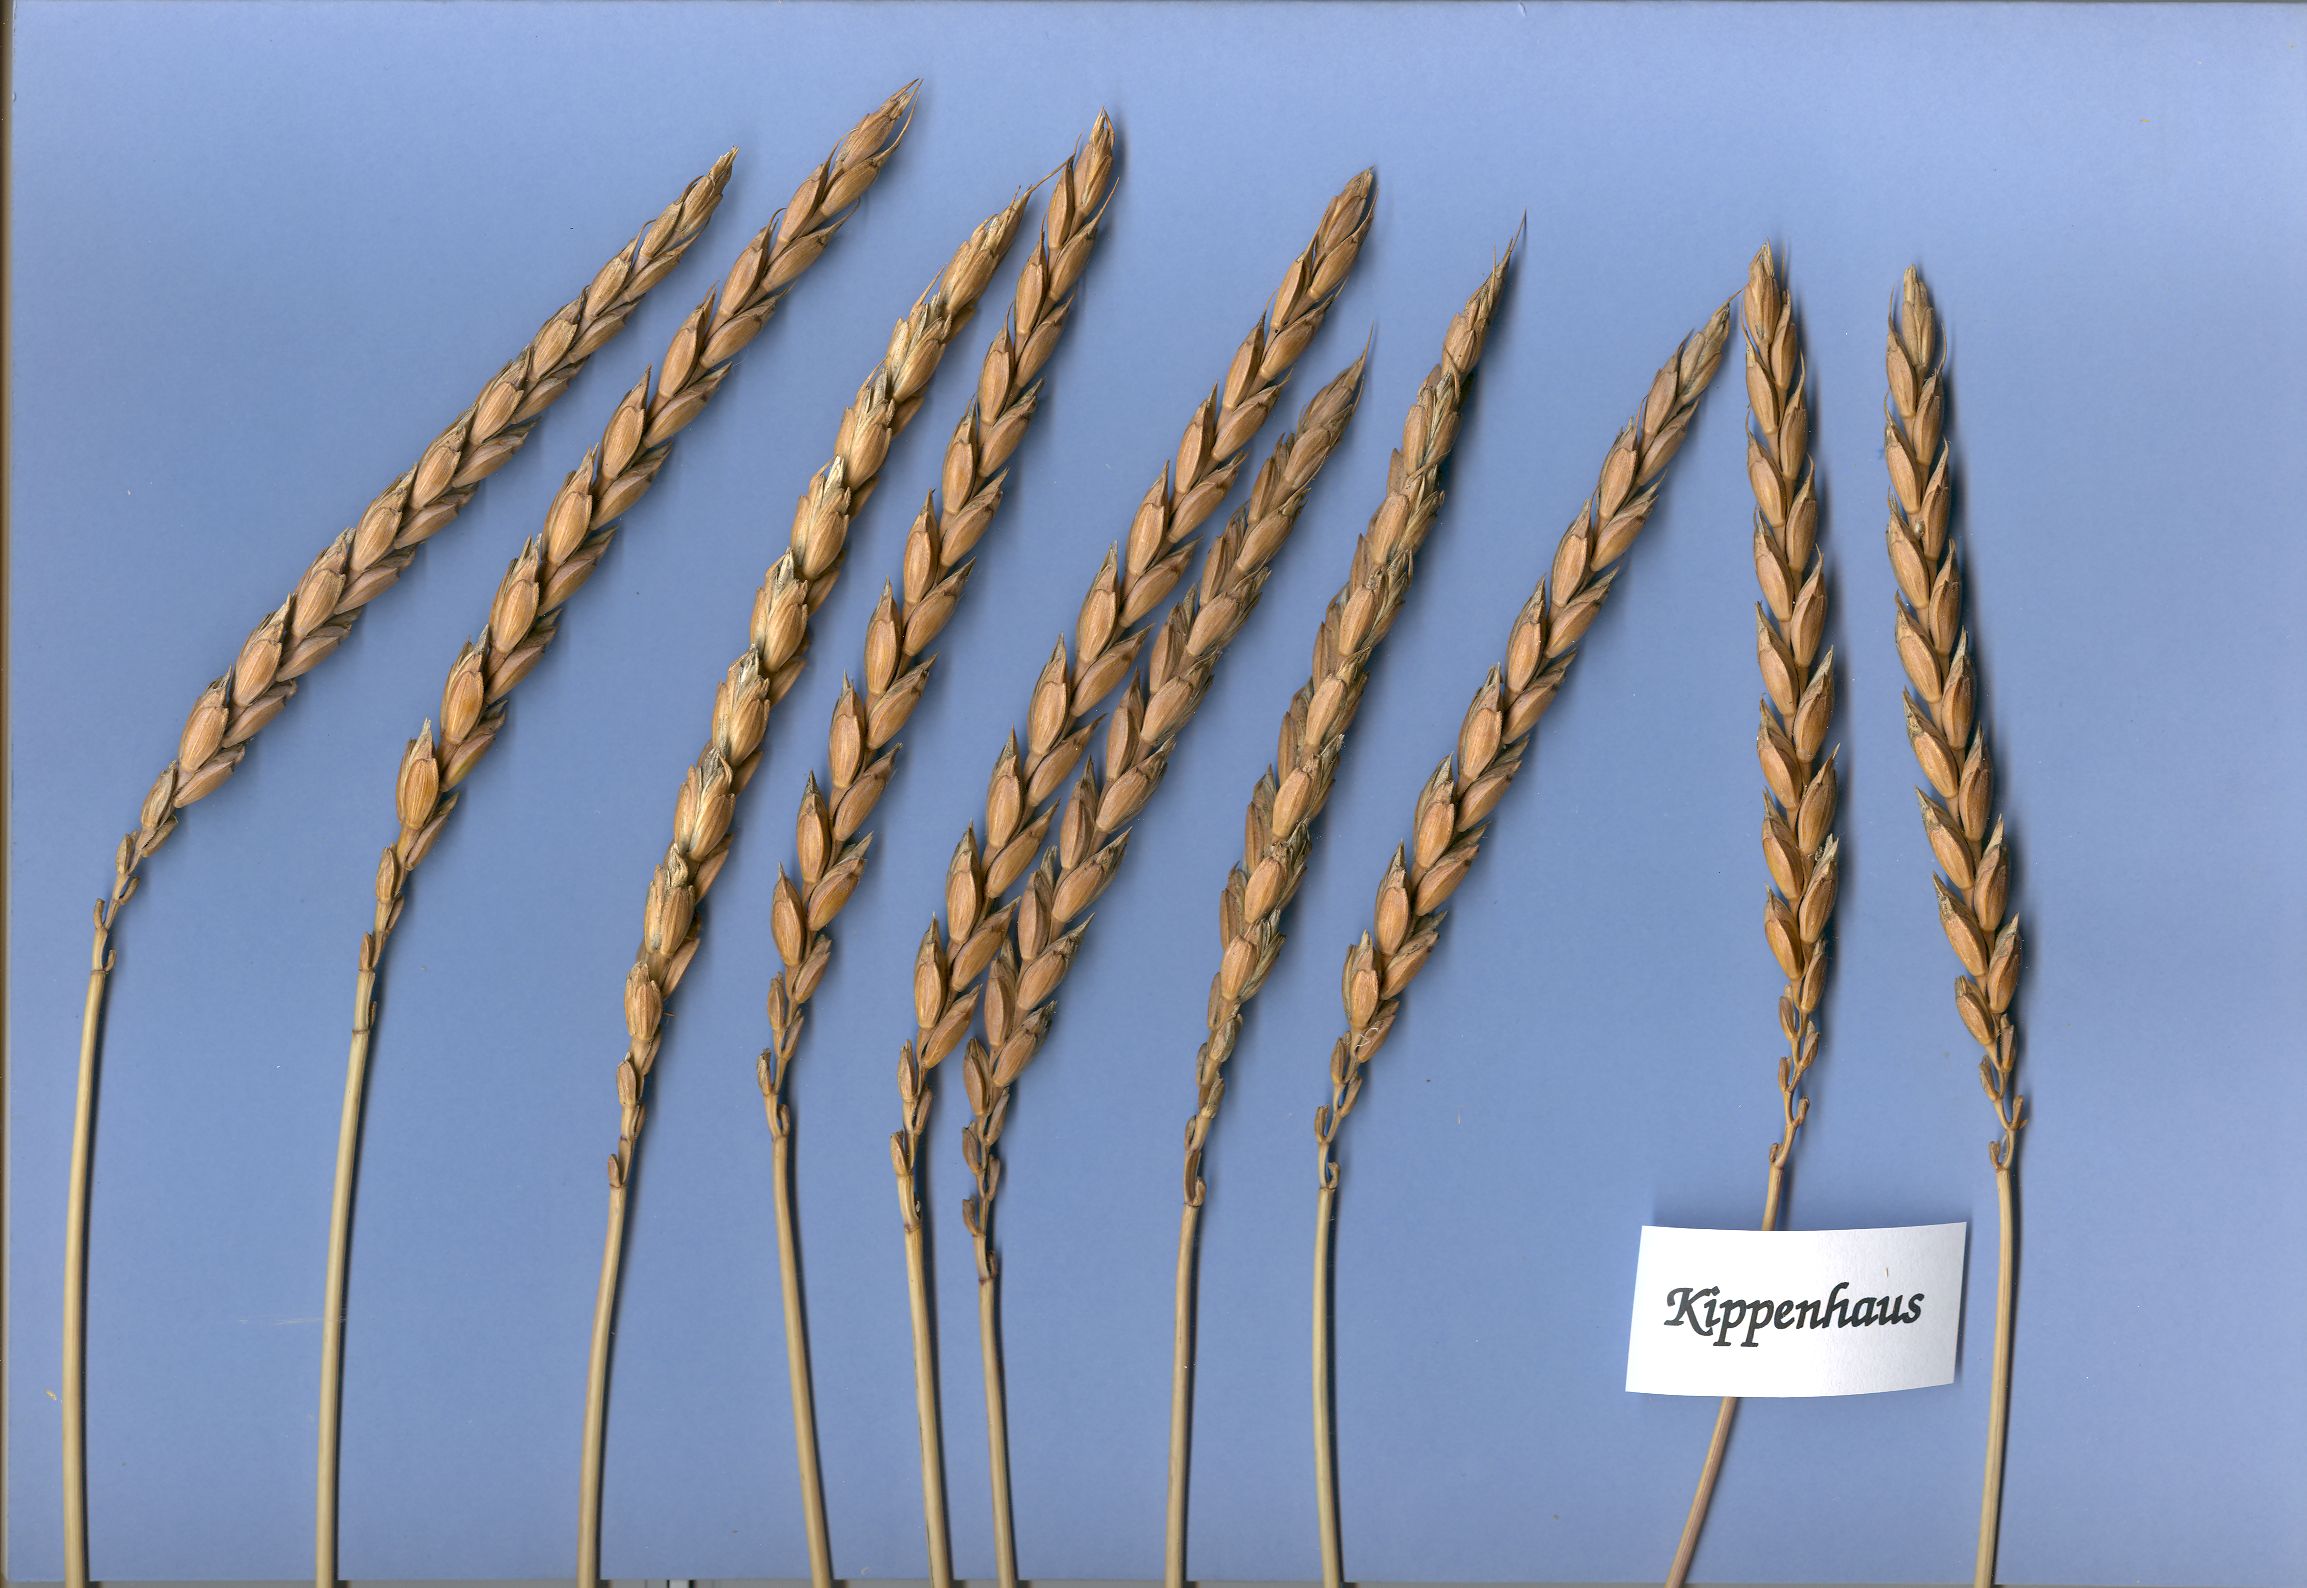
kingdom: Plantae
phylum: Tracheophyta
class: Liliopsida
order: Poales
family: Poaceae
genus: Triticum
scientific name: Triticum aestivum
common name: Common wheat
